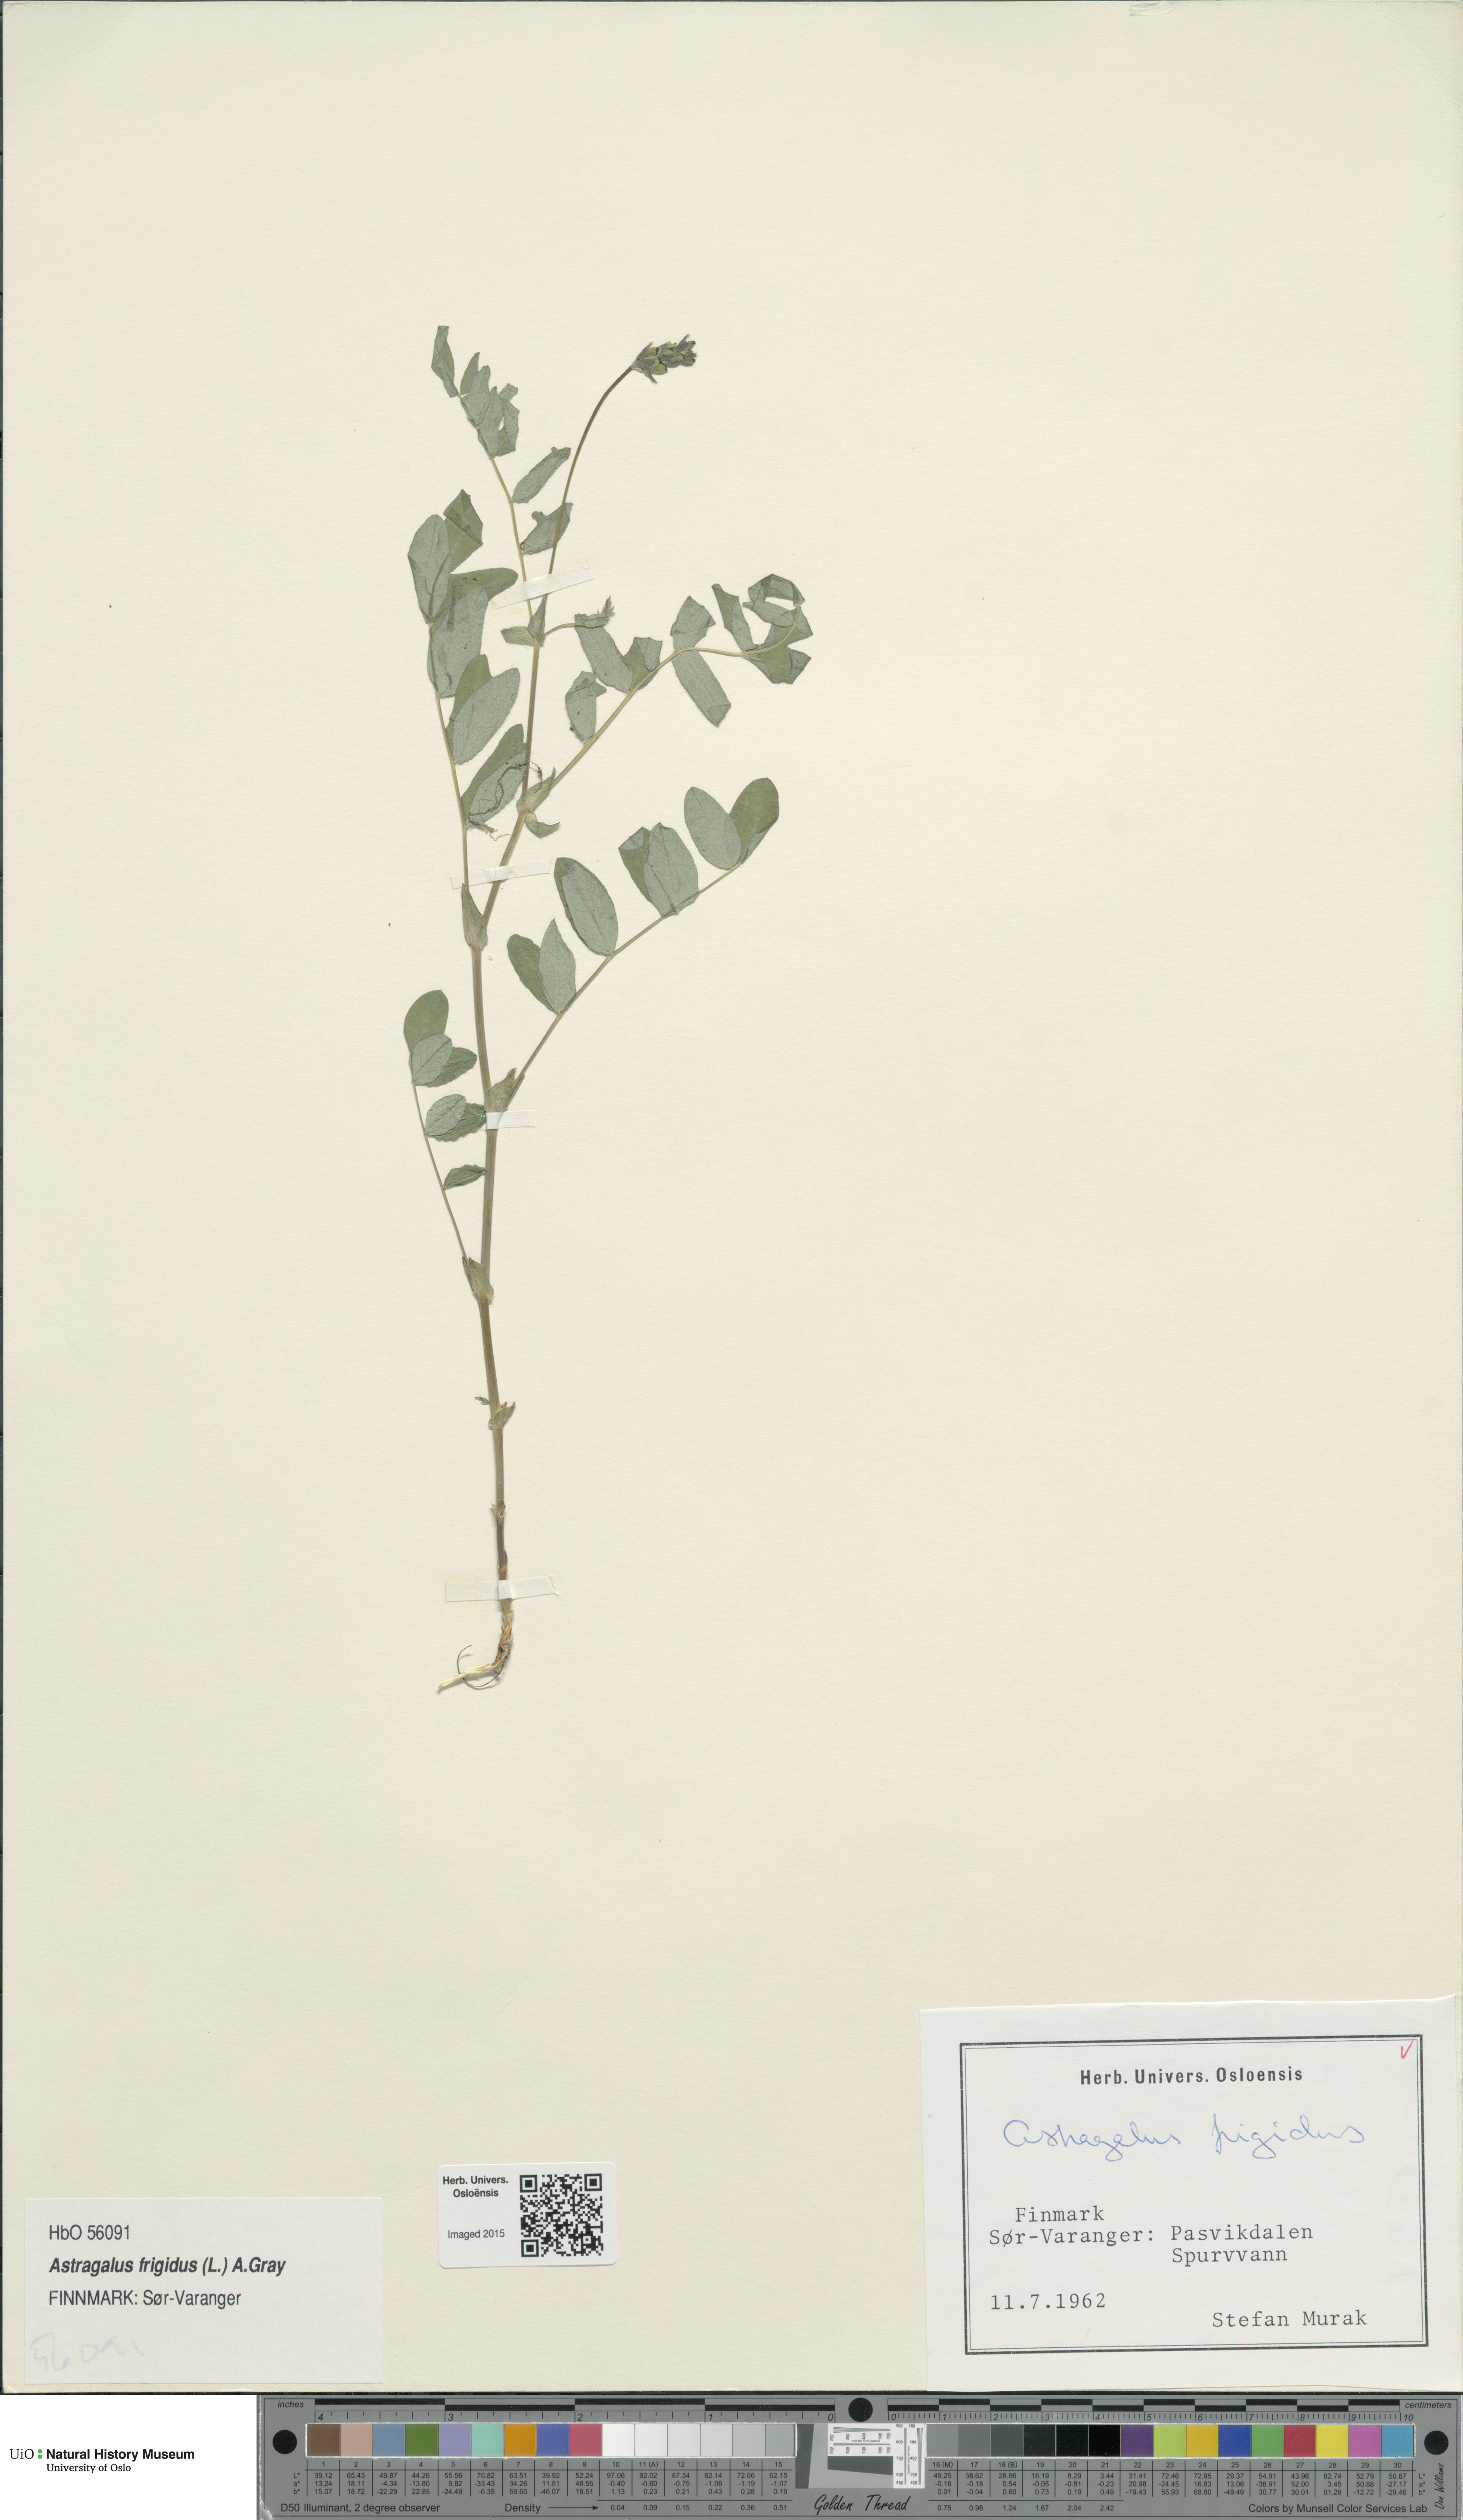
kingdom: Plantae
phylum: Tracheophyta
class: Magnoliopsida
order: Fabales
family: Fabaceae
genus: Astragalus
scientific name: Astragalus frigidus
